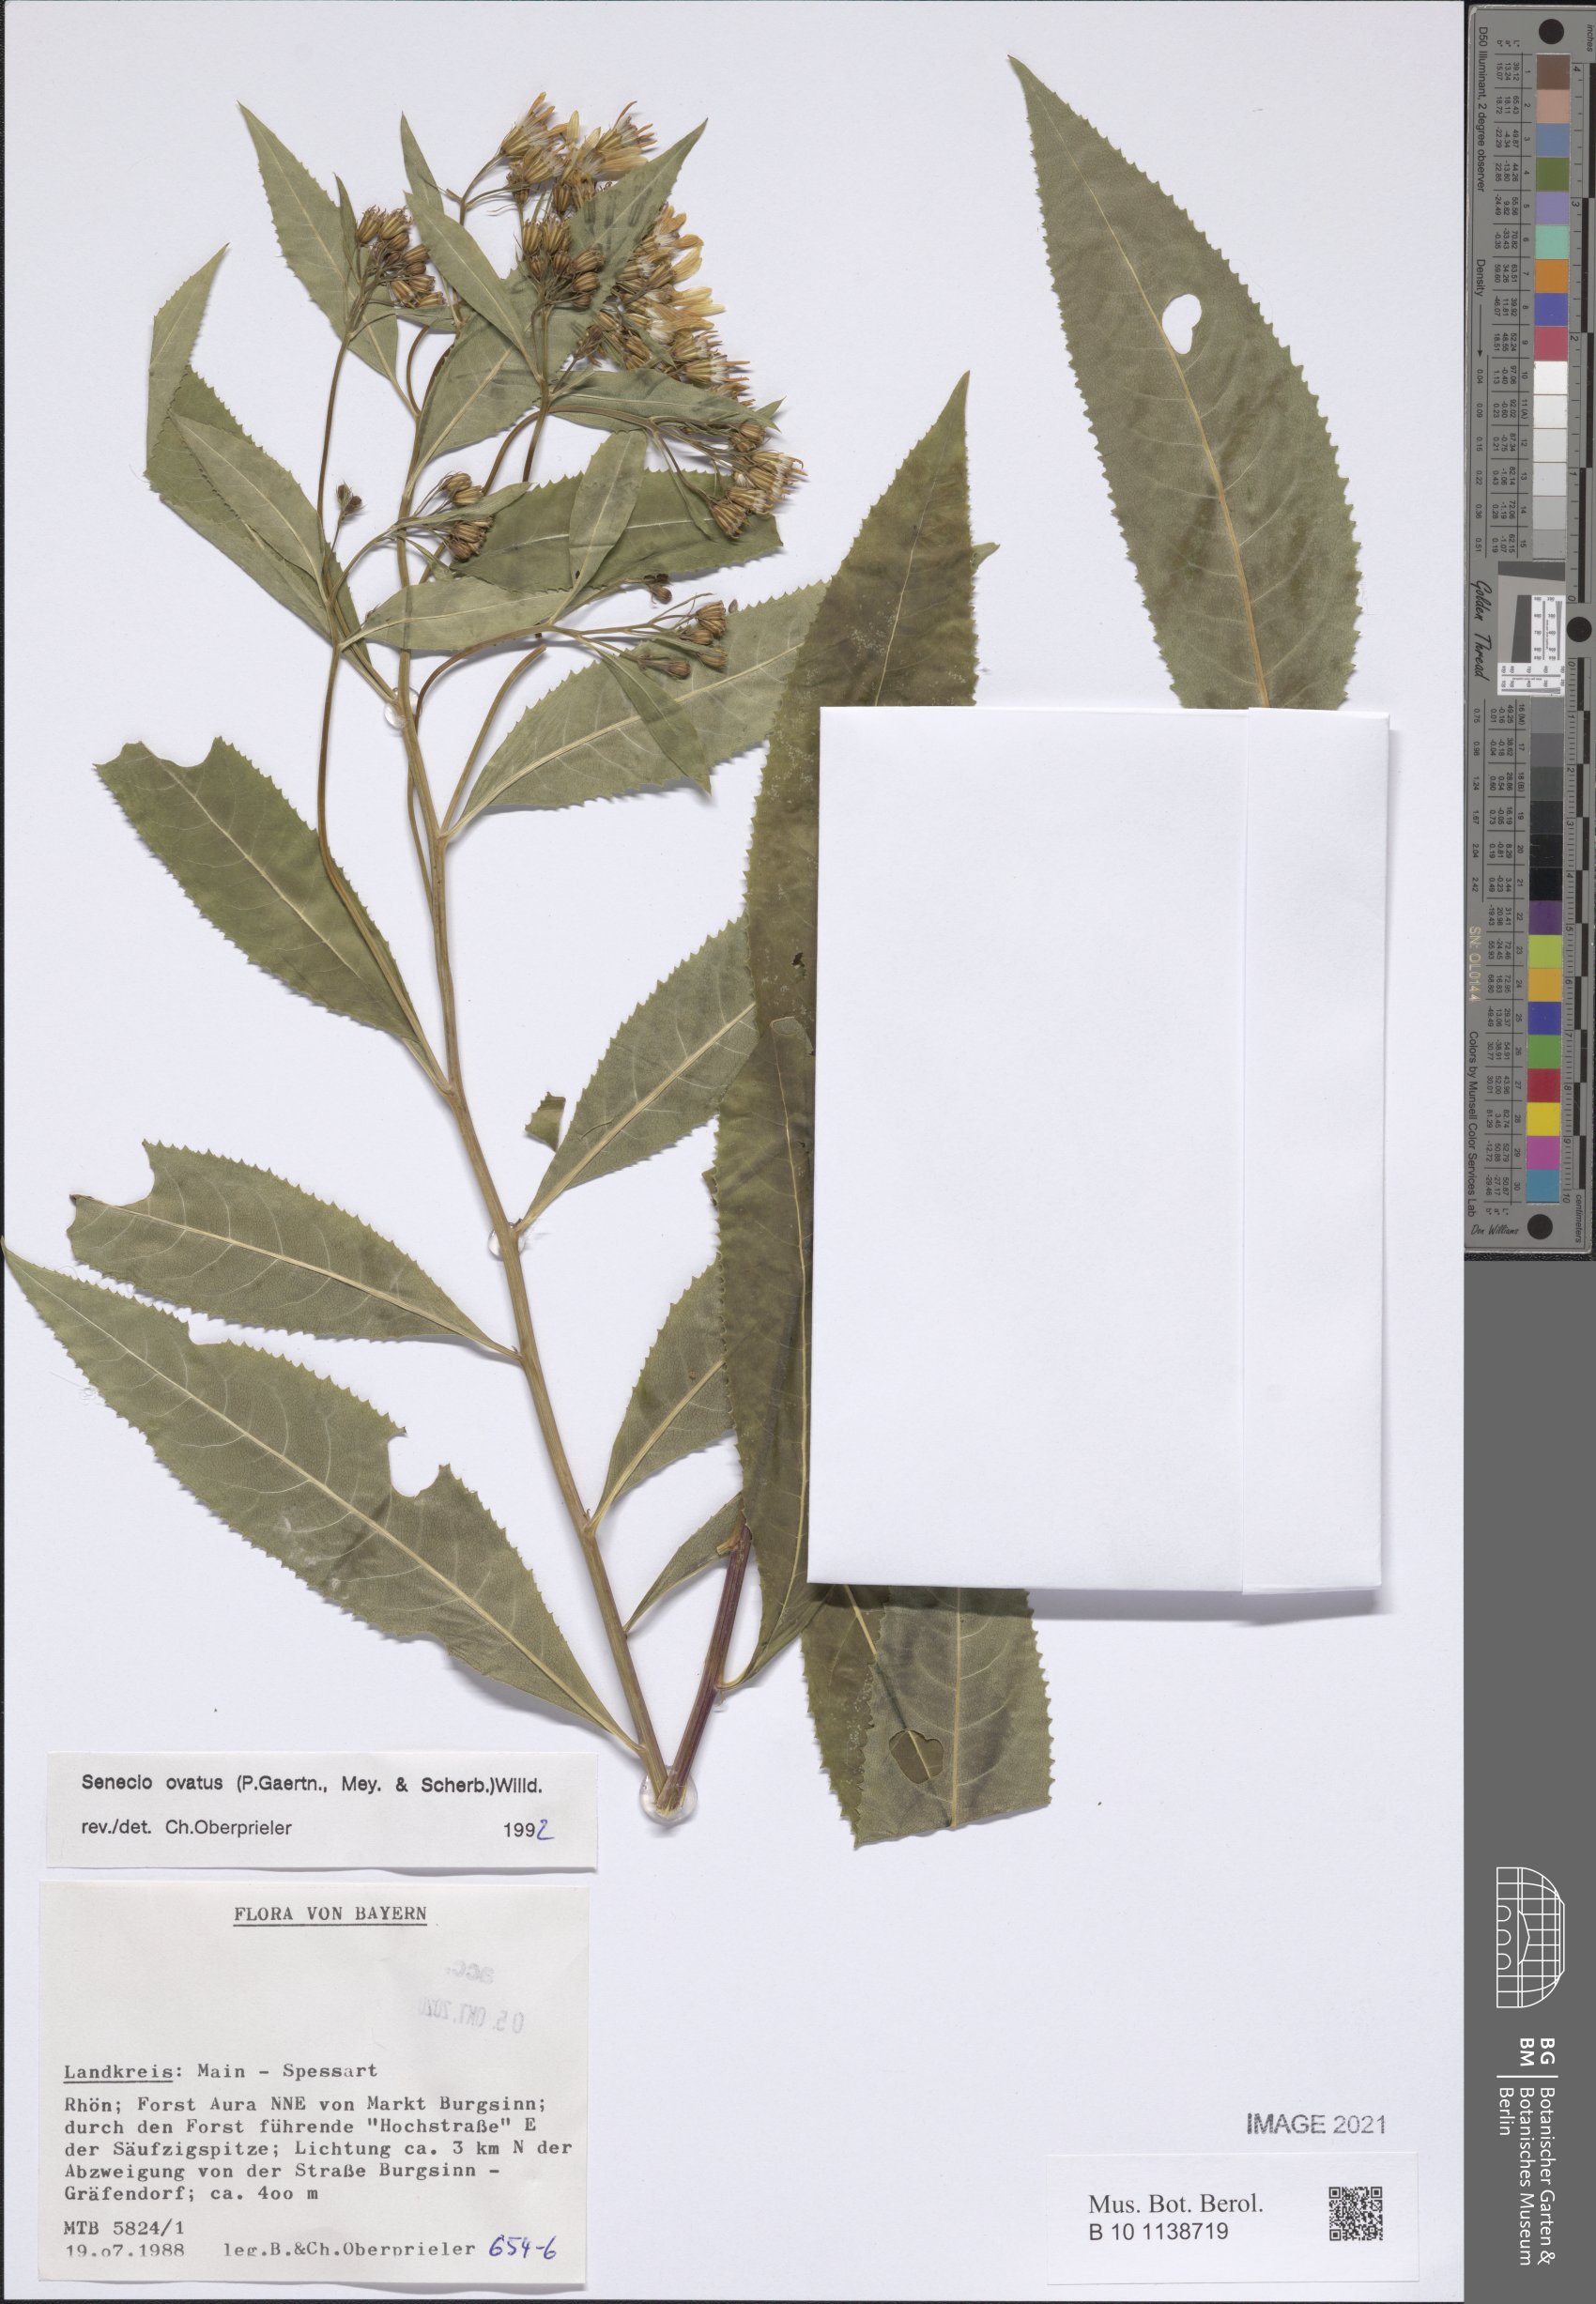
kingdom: Plantae
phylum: Tracheophyta
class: Magnoliopsida
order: Asterales
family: Asteraceae
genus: Senecio
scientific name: Senecio ovatus
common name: Wood ragwort
